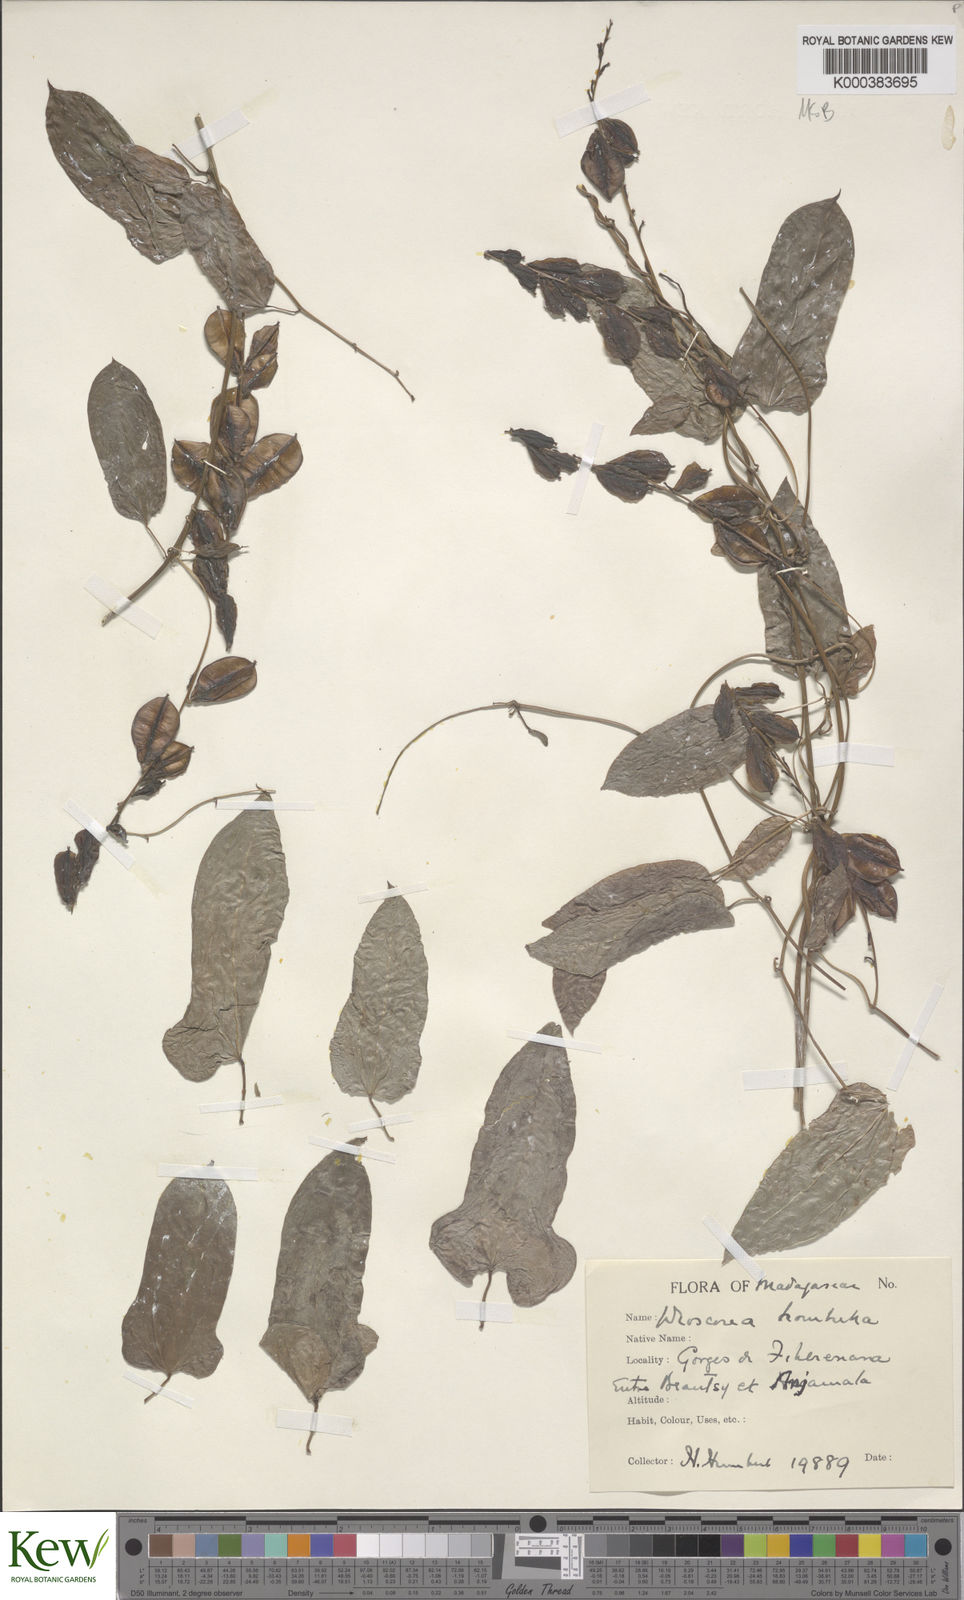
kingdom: Plantae
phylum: Tracheophyta
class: Liliopsida
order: Dioscoreales
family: Dioscoreaceae
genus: Dioscorea
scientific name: Dioscorea
